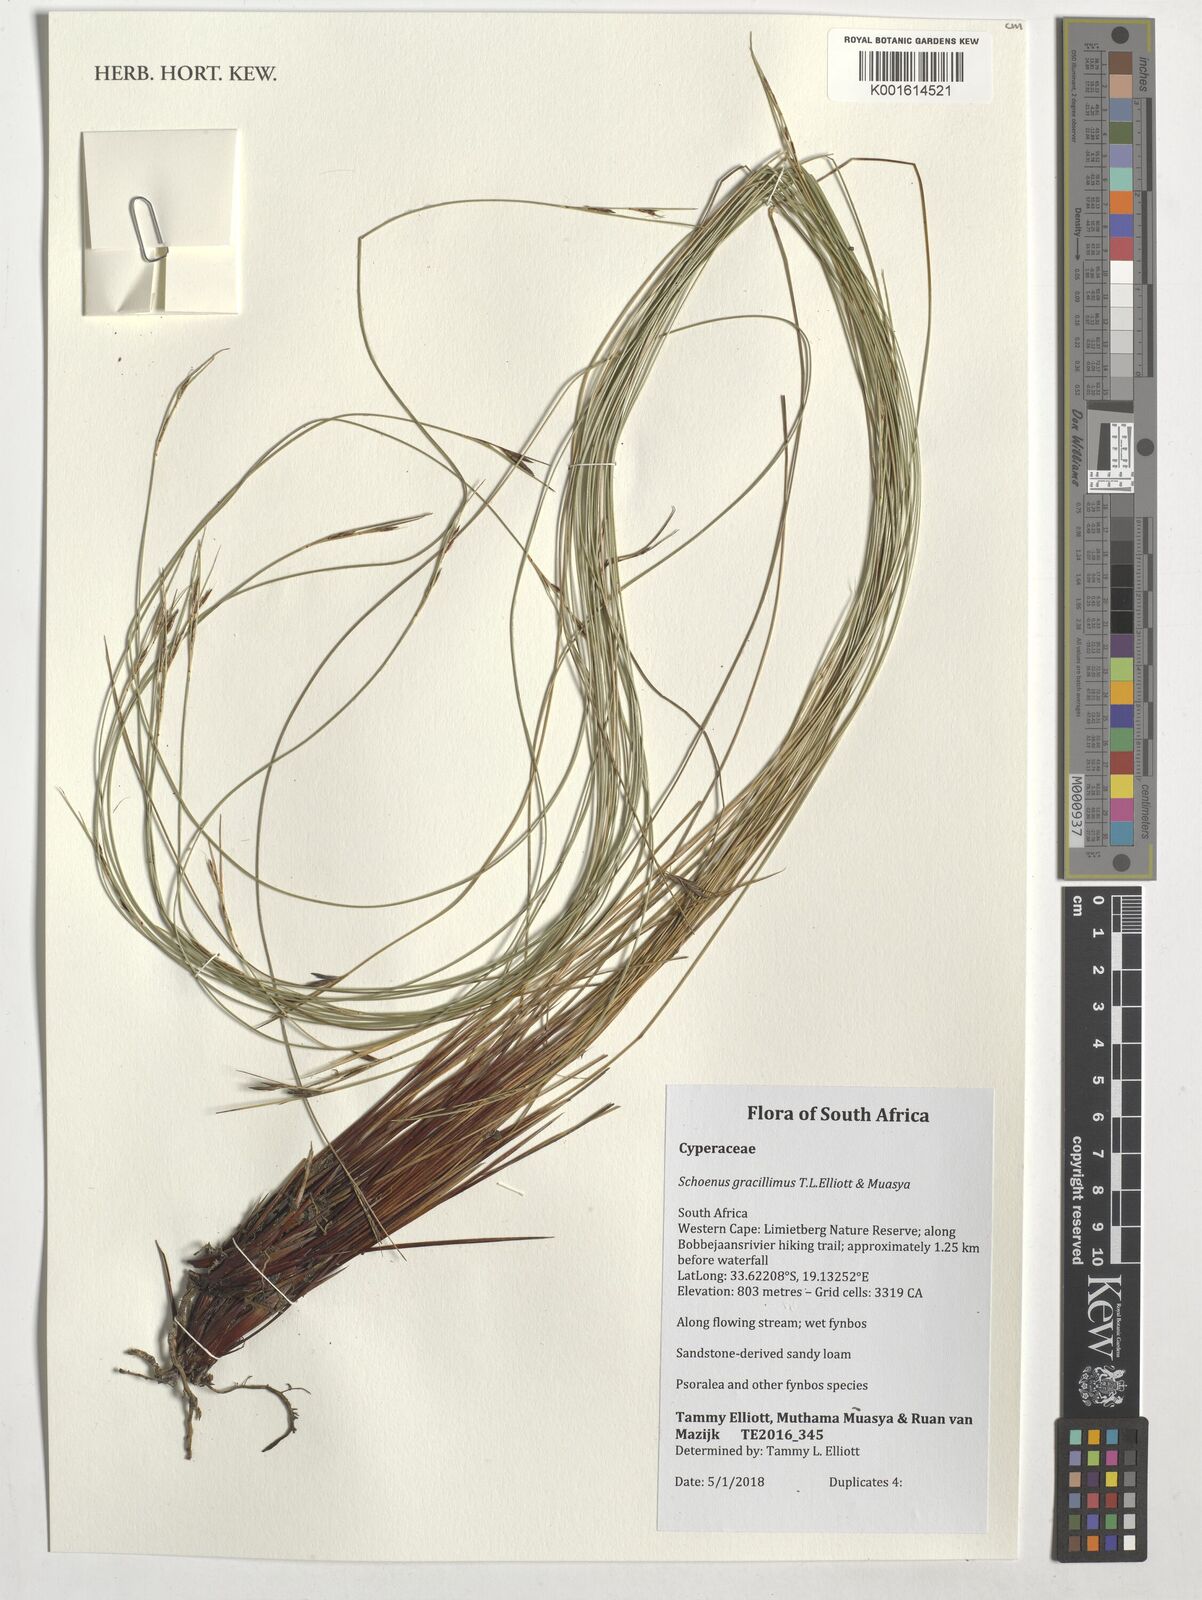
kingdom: Plantae
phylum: Tracheophyta
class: Liliopsida
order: Poales
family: Cyperaceae
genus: Schoenus
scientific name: Schoenus gracillimus
